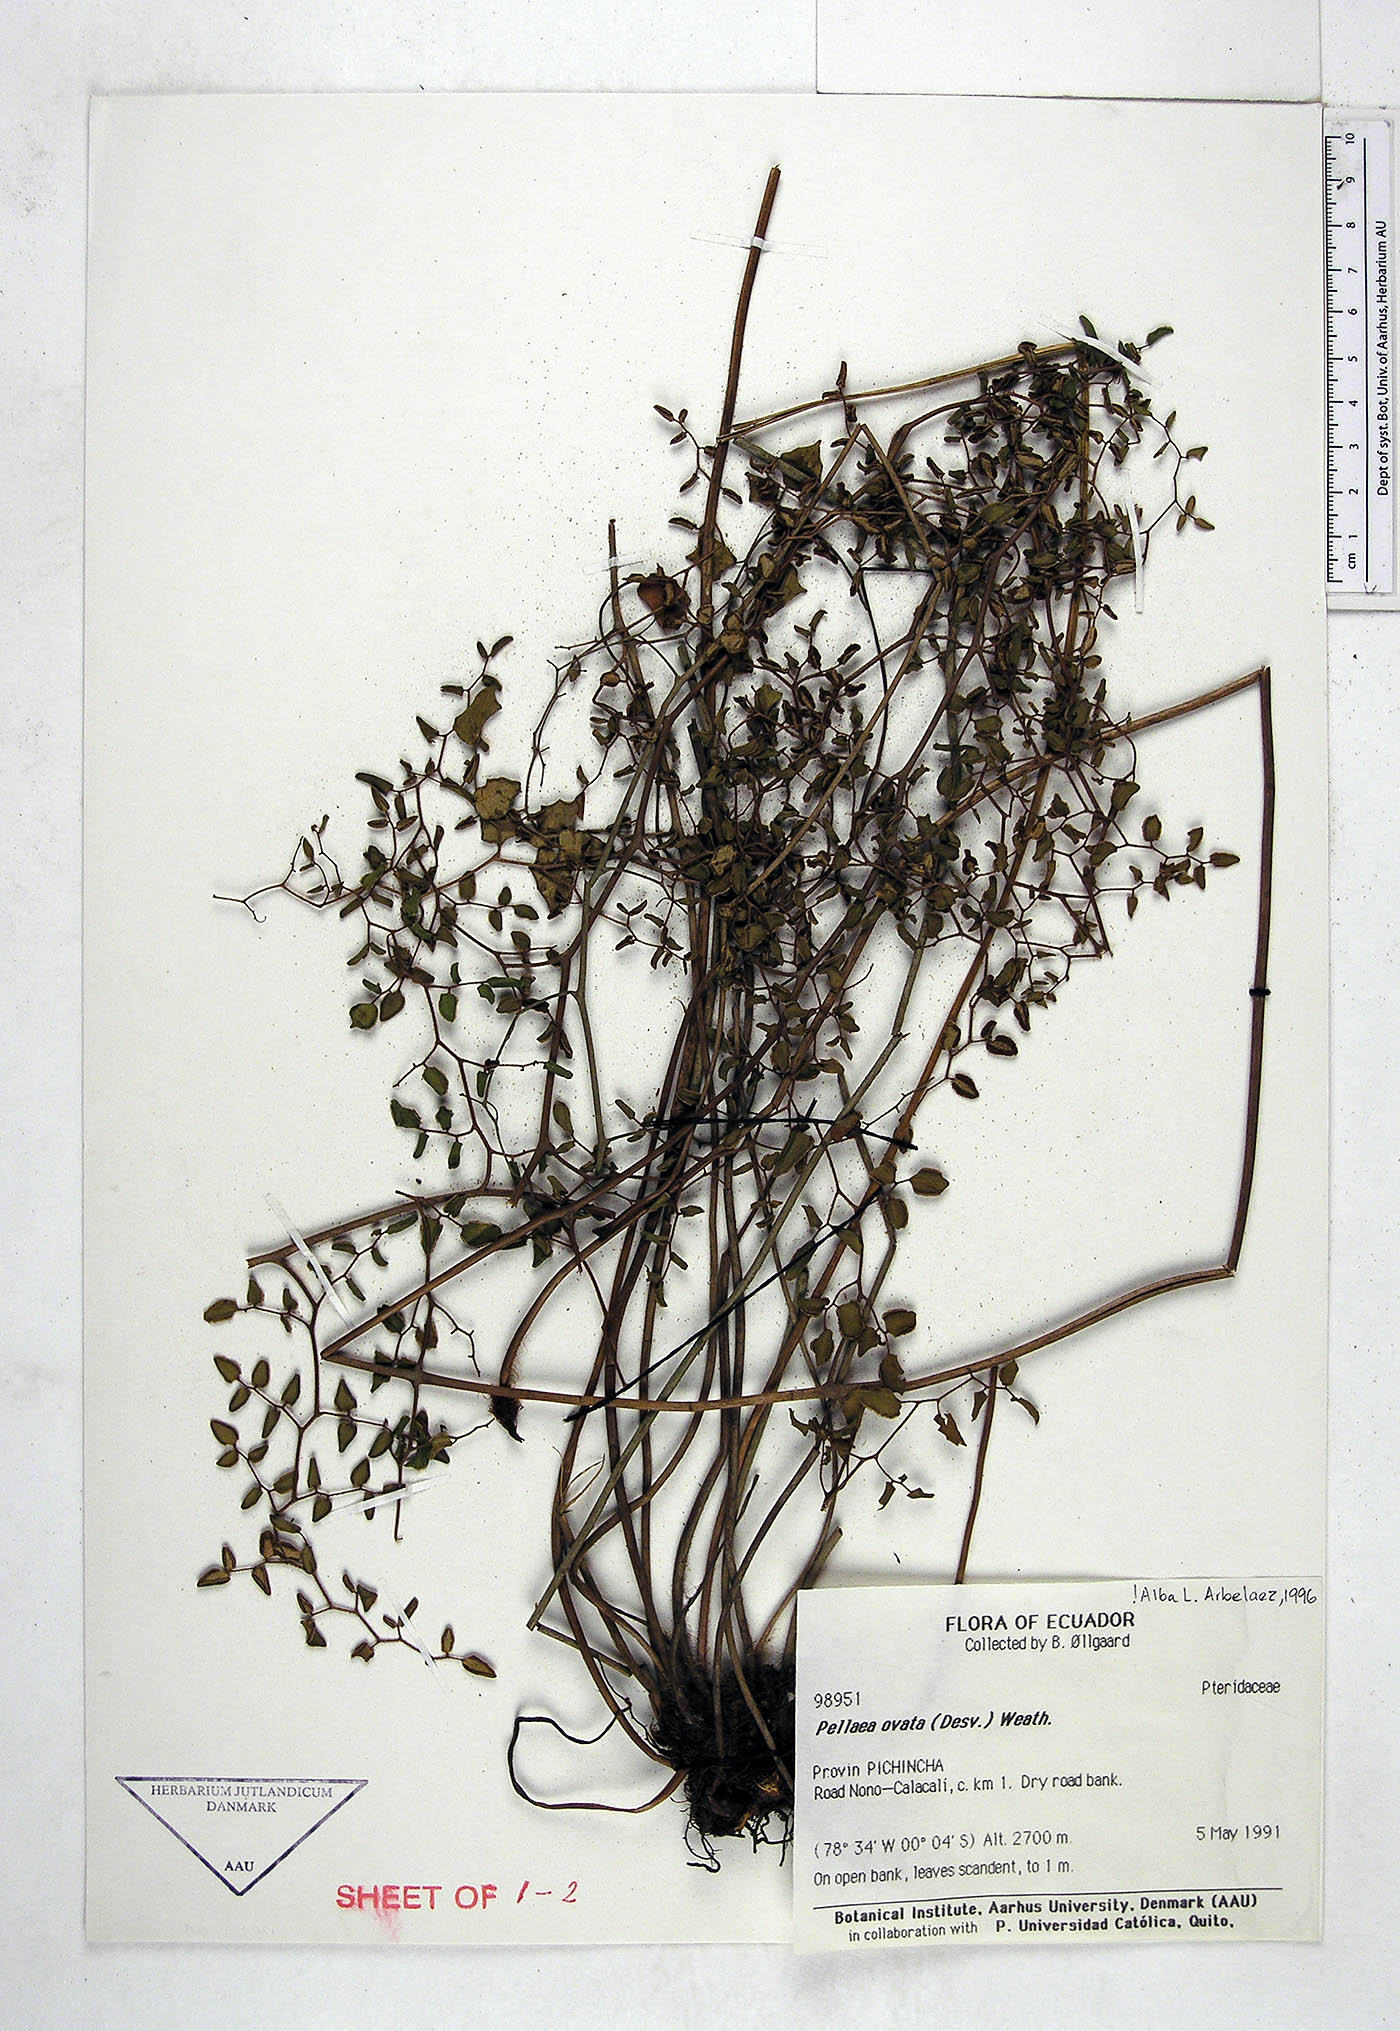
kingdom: Plantae
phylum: Tracheophyta
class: Polypodiopsida
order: Polypodiales
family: Pteridaceae
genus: Pellaea
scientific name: Pellaea ovata
